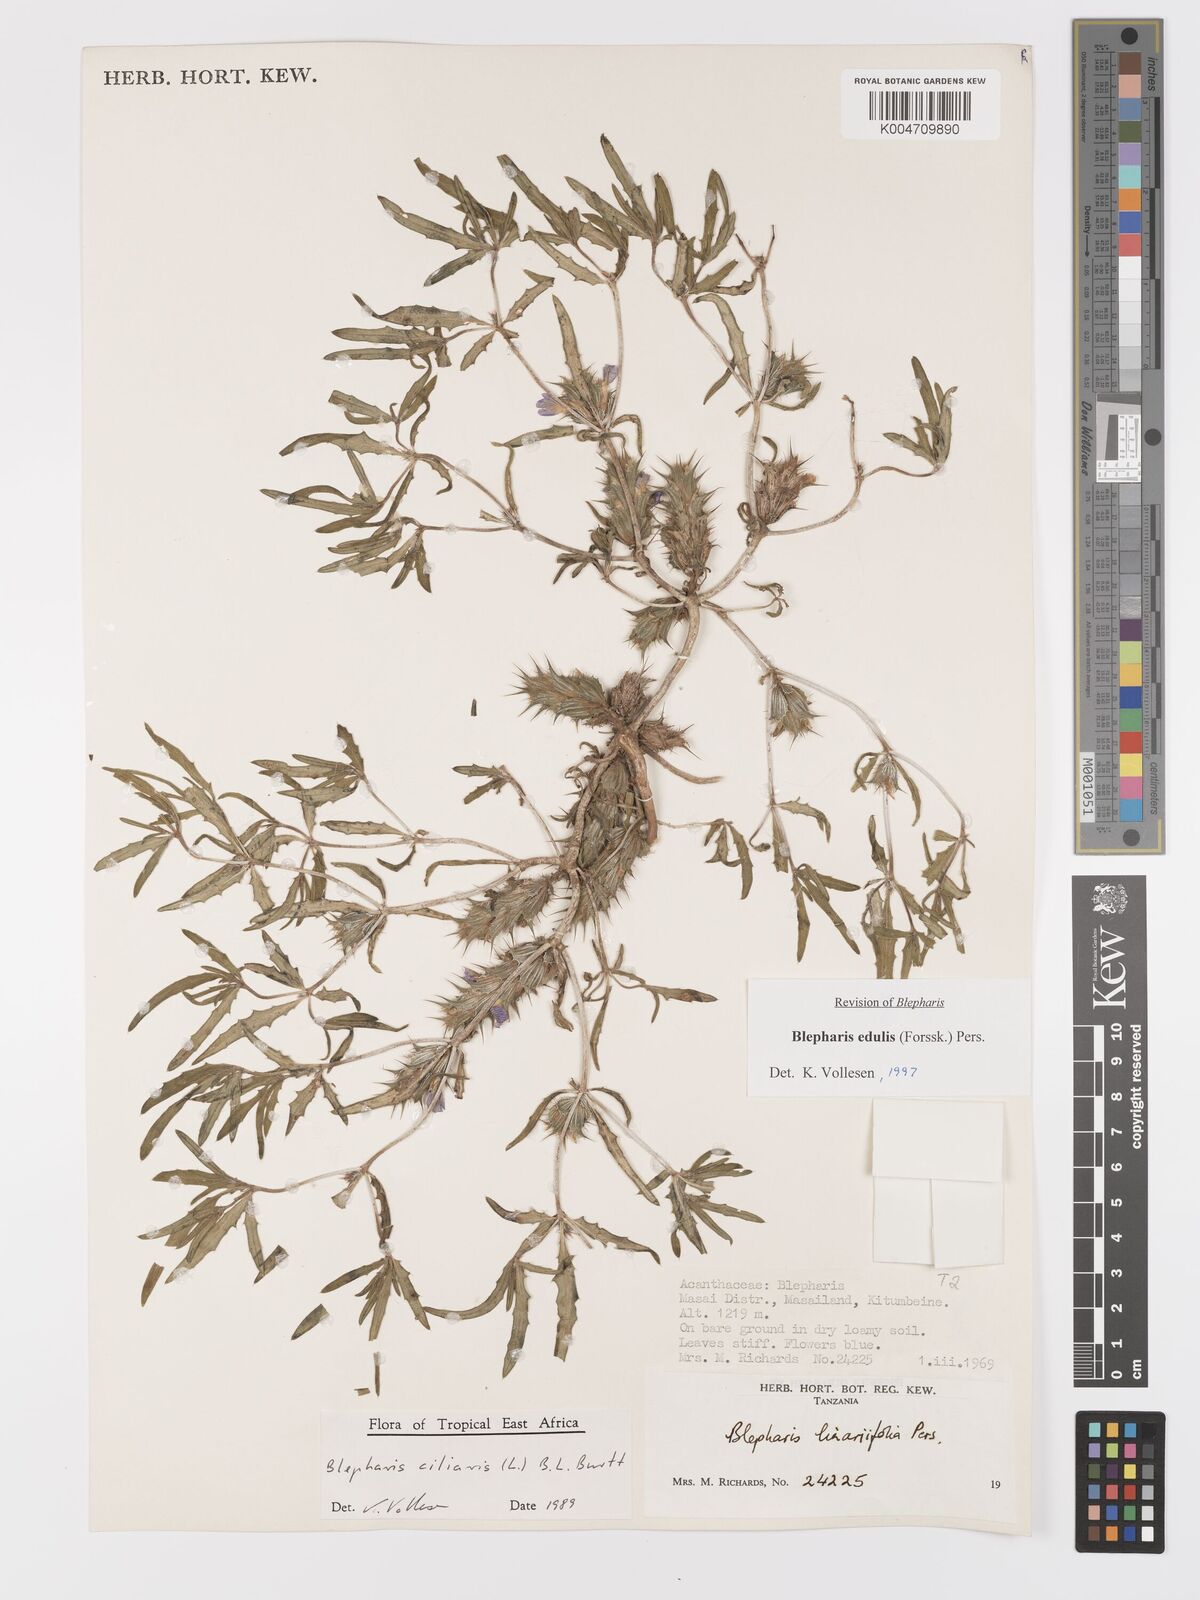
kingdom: Plantae
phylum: Tracheophyta
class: Magnoliopsida
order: Lamiales
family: Acanthaceae
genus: Blepharis
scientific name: Blepharis edulis
